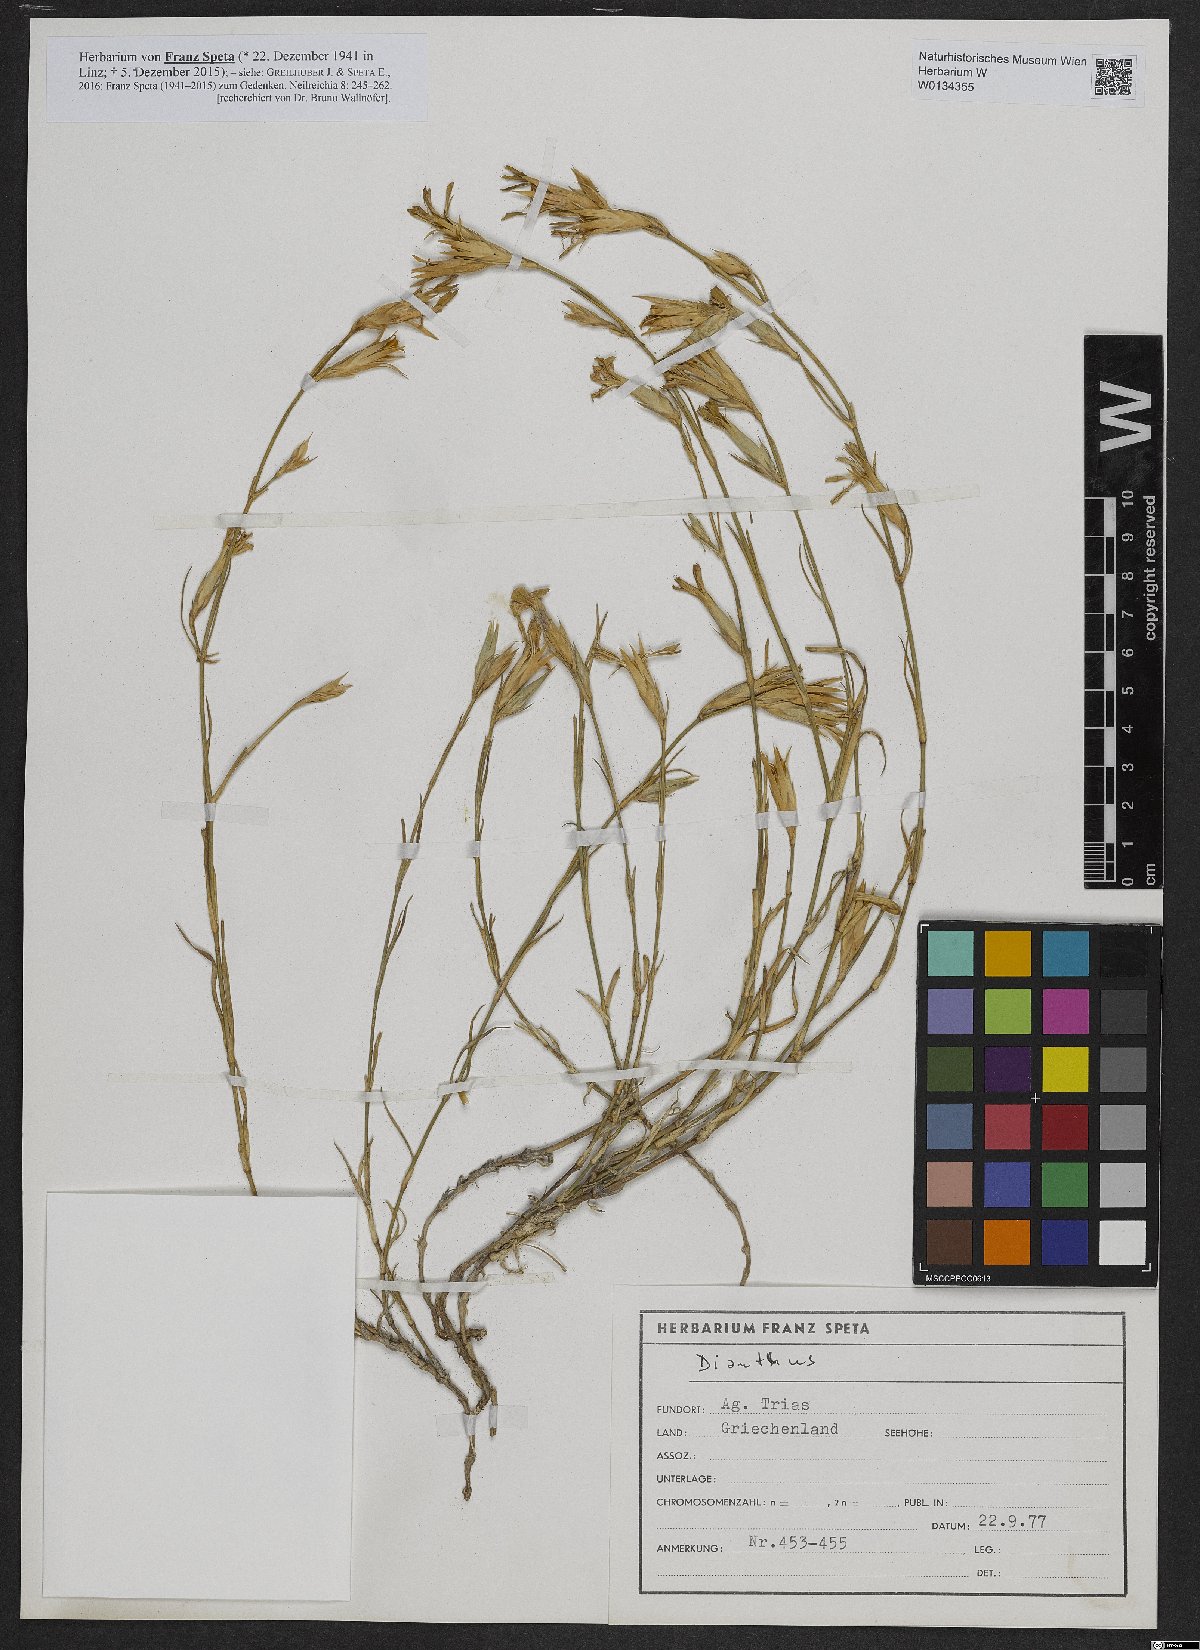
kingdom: Plantae
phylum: Tracheophyta
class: Magnoliopsida
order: Caryophyllales
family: Caryophyllaceae
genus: Dianthus
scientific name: Dianthus
